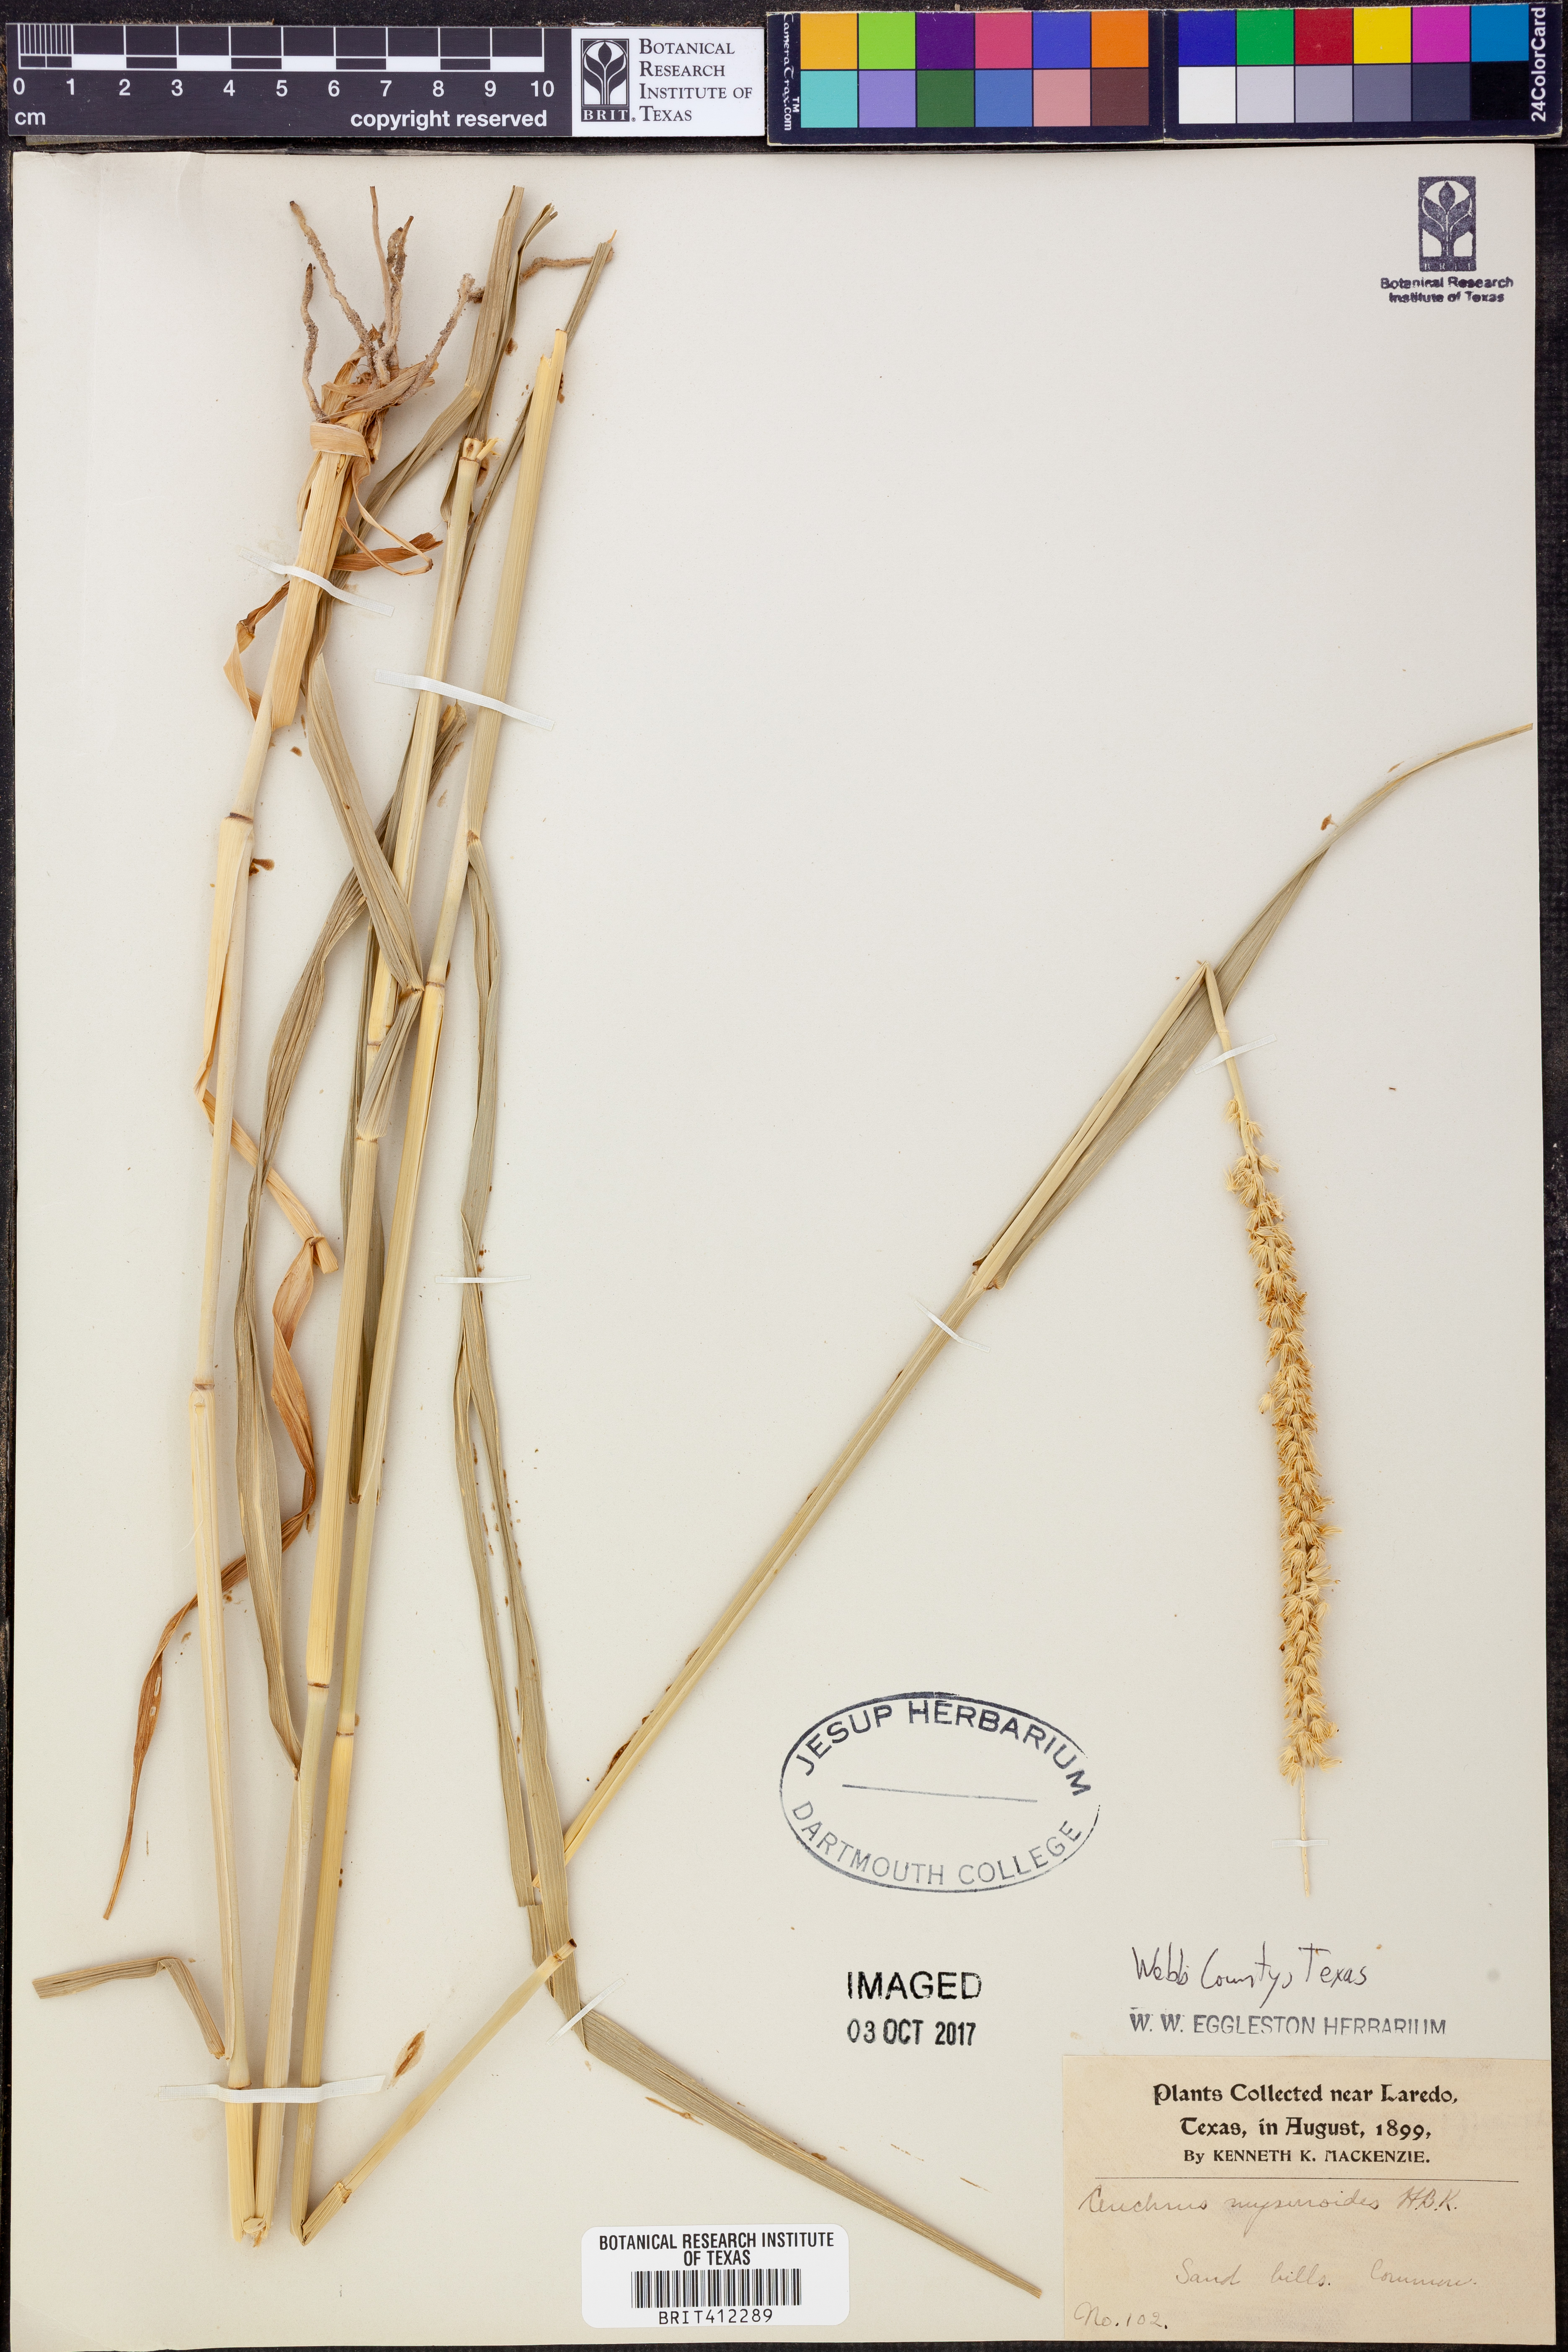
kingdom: Plantae
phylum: Tracheophyta
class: Liliopsida
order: Poales
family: Poaceae
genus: Cenchrus
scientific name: Cenchrus myosuroides
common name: Big sandbur
